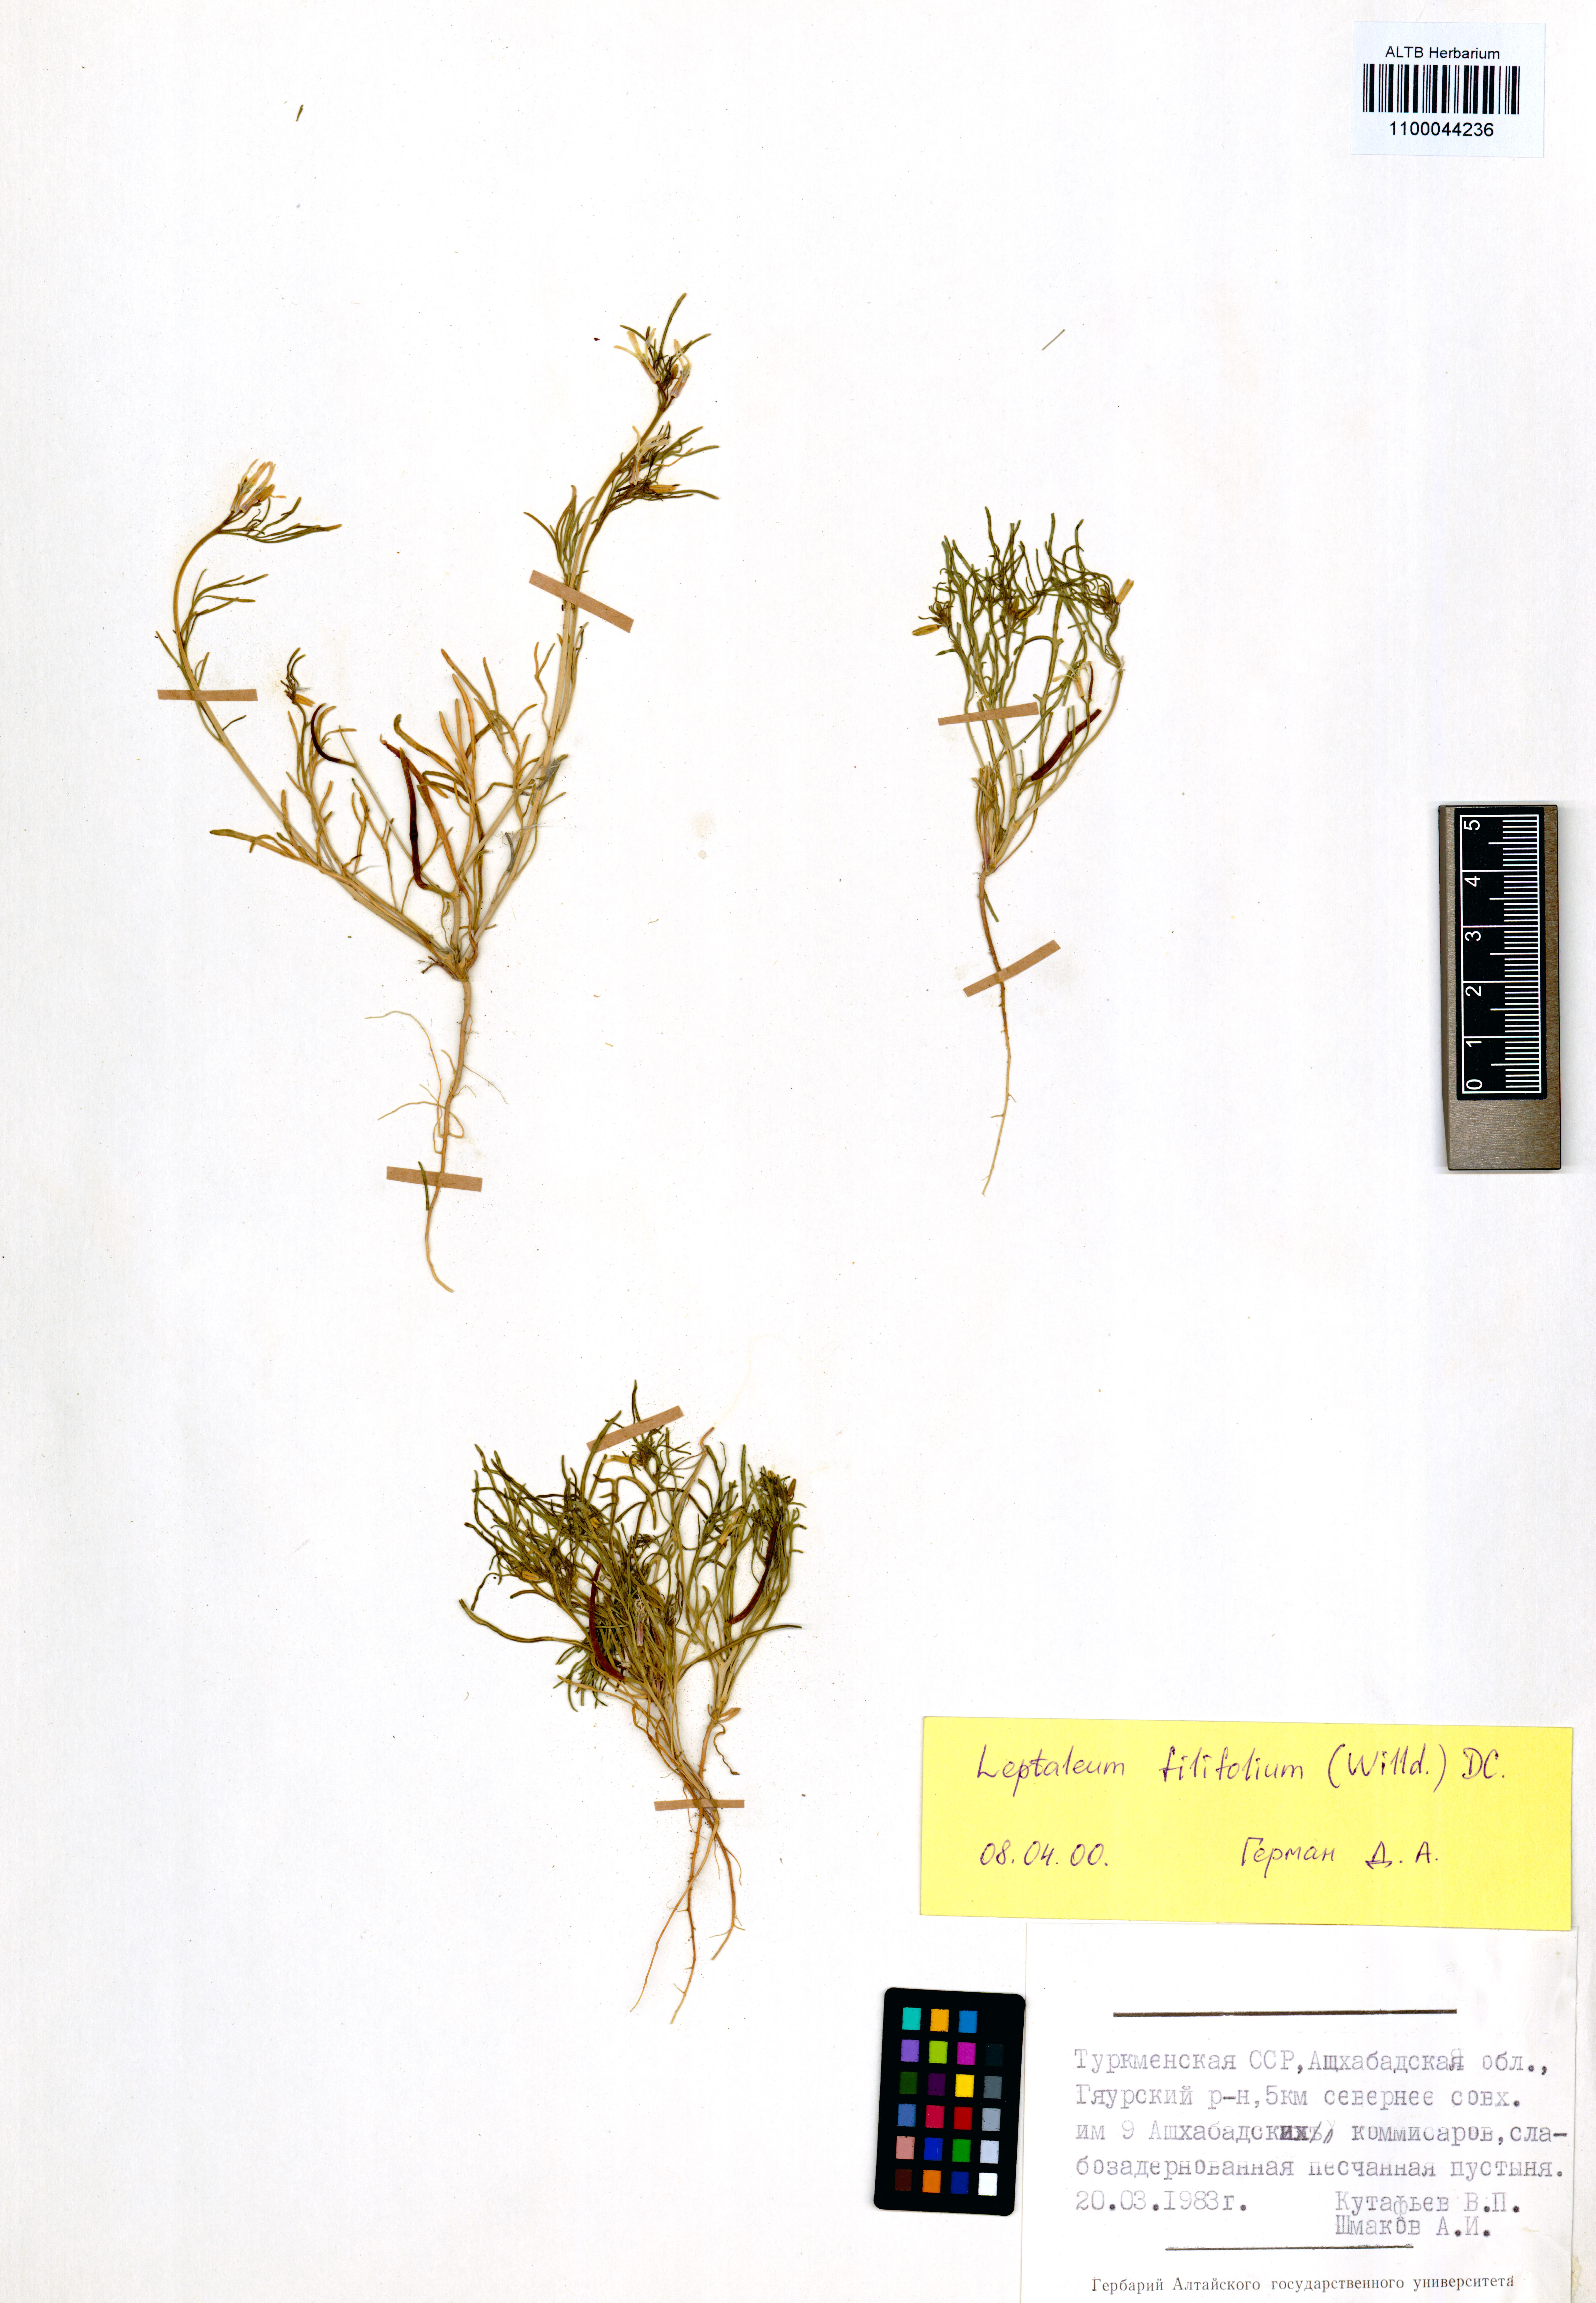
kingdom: Plantae
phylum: Tracheophyta
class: Magnoliopsida
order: Brassicales
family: Brassicaceae
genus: Leptaleum
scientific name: Leptaleum filifolium
